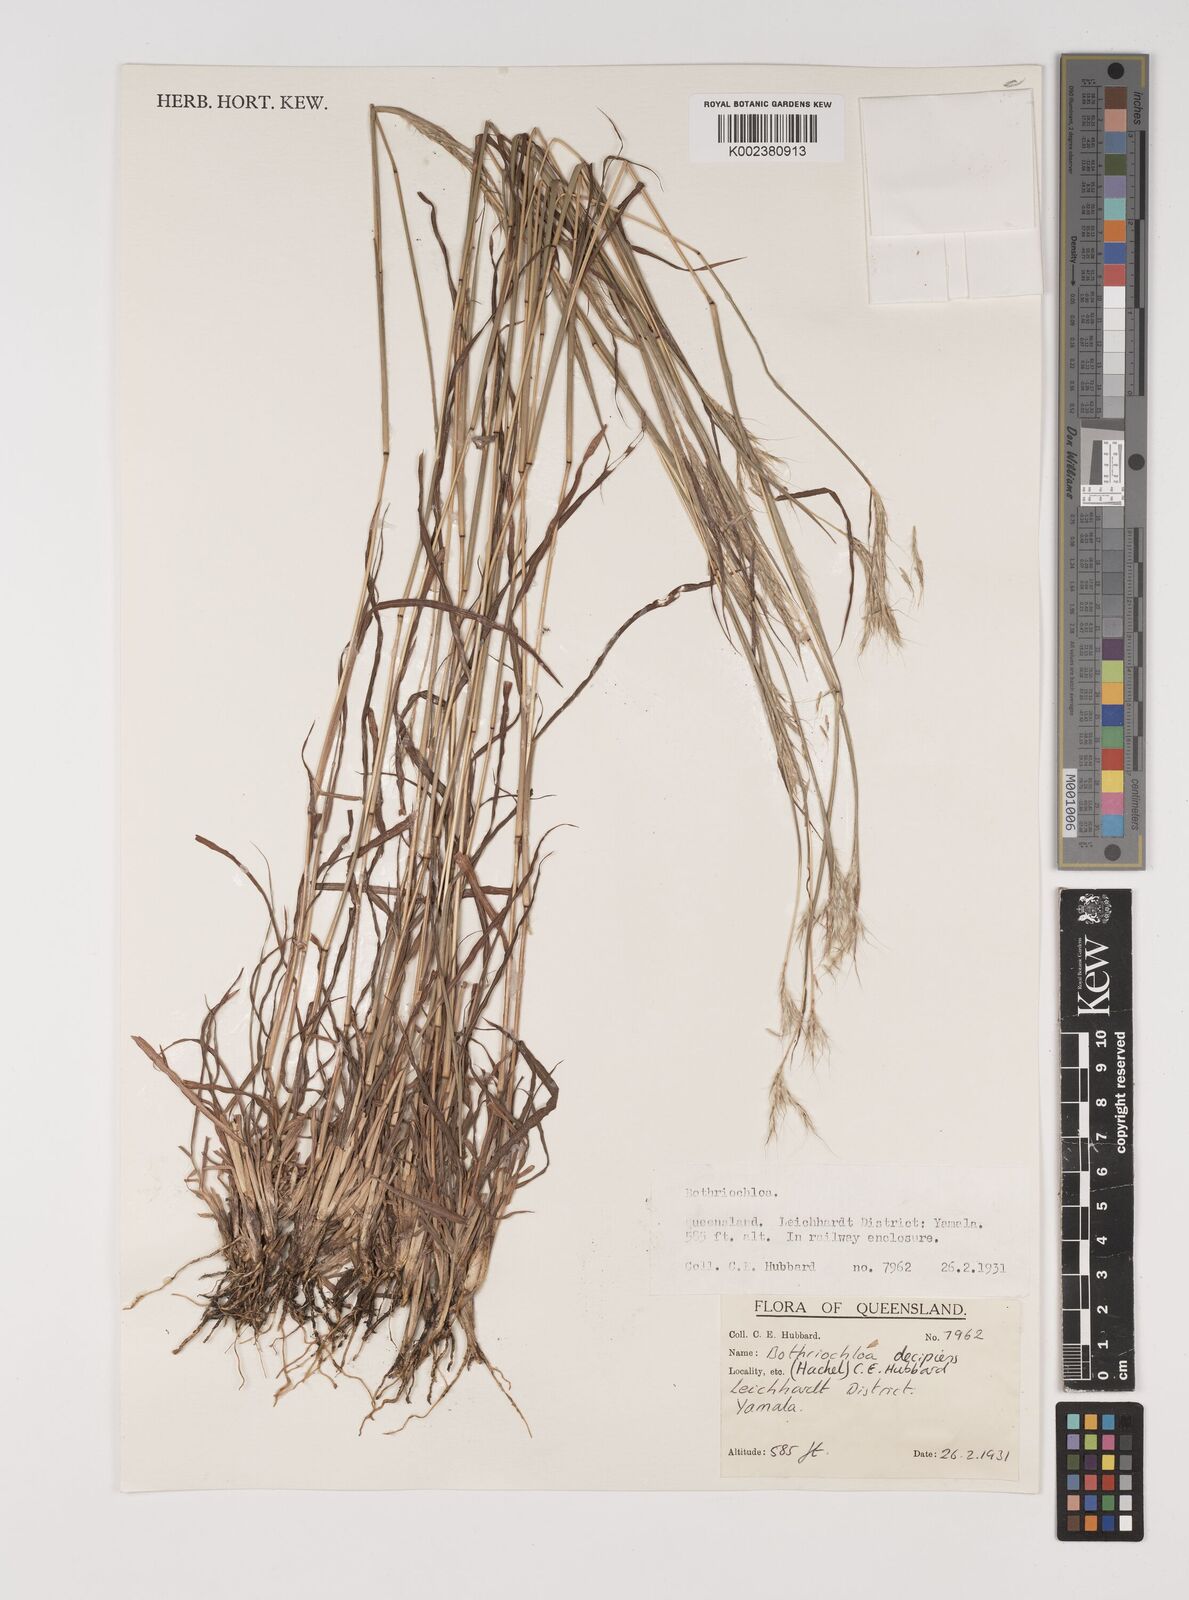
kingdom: Plantae
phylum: Tracheophyta
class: Liliopsida
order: Poales
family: Poaceae
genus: Bothriochloa
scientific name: Bothriochloa decipiens
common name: Pitted-bluegrass
